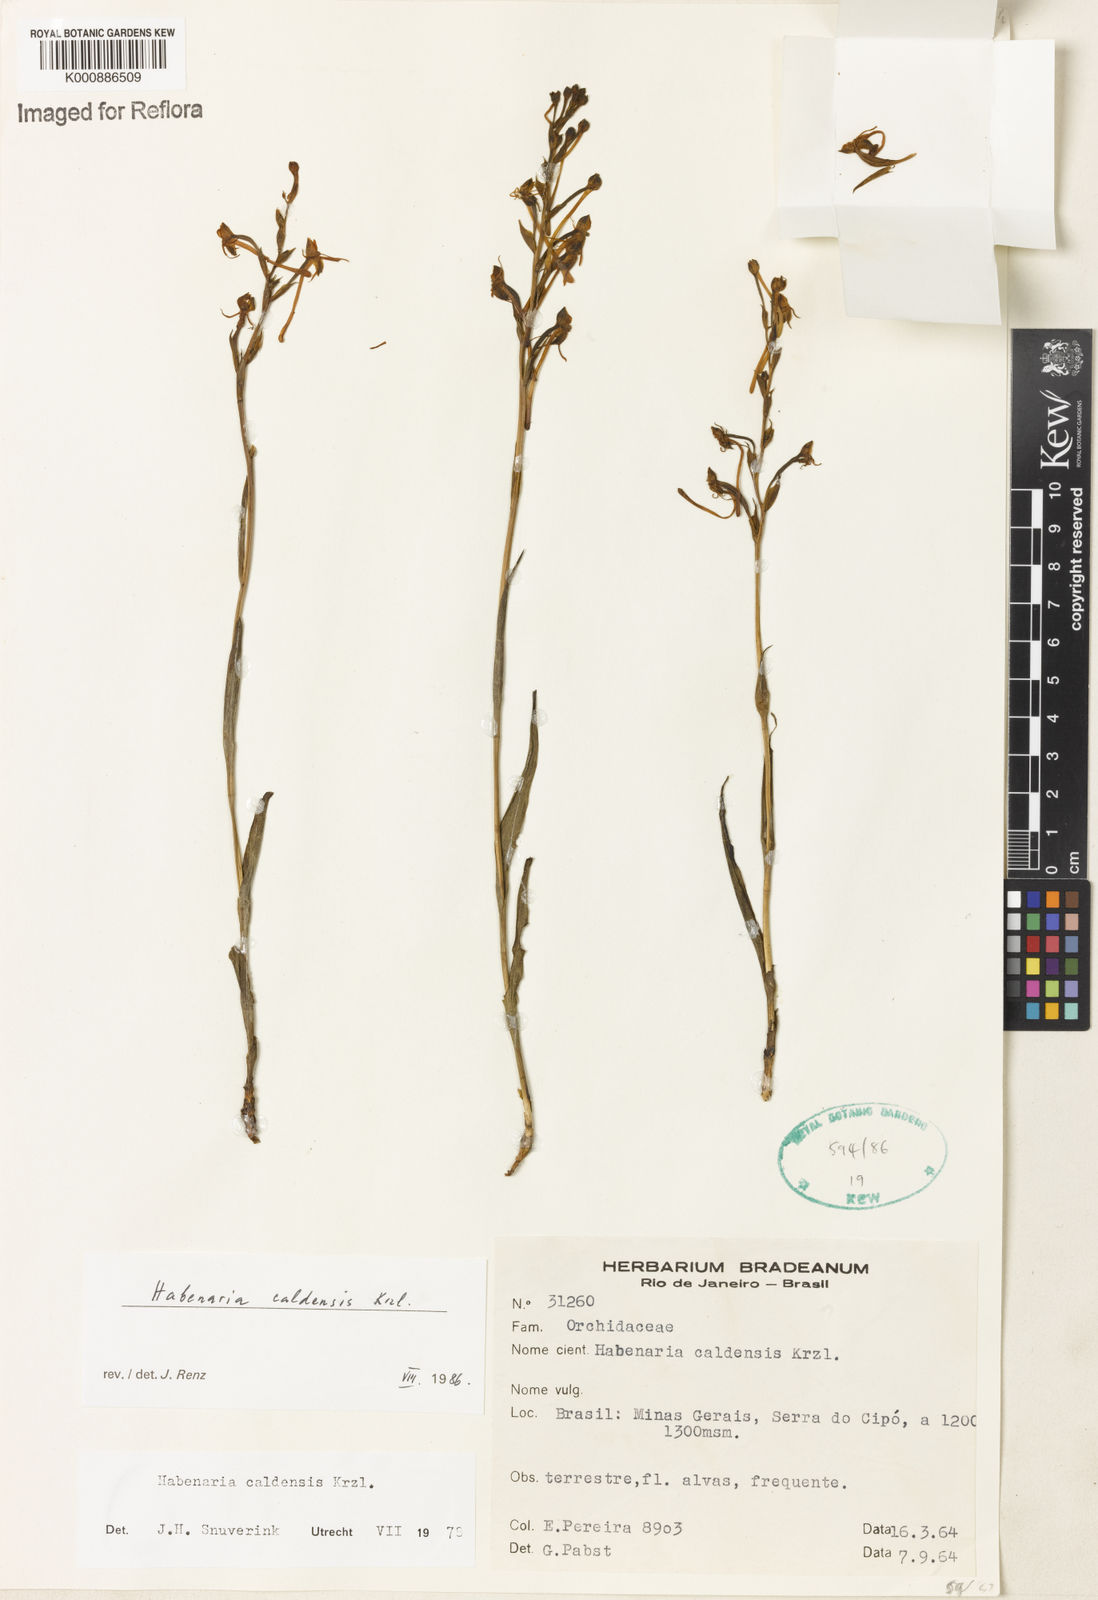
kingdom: Plantae
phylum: Tracheophyta
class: Liliopsida
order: Asparagales
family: Orchidaceae
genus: Habenaria
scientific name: Habenaria caldensis
